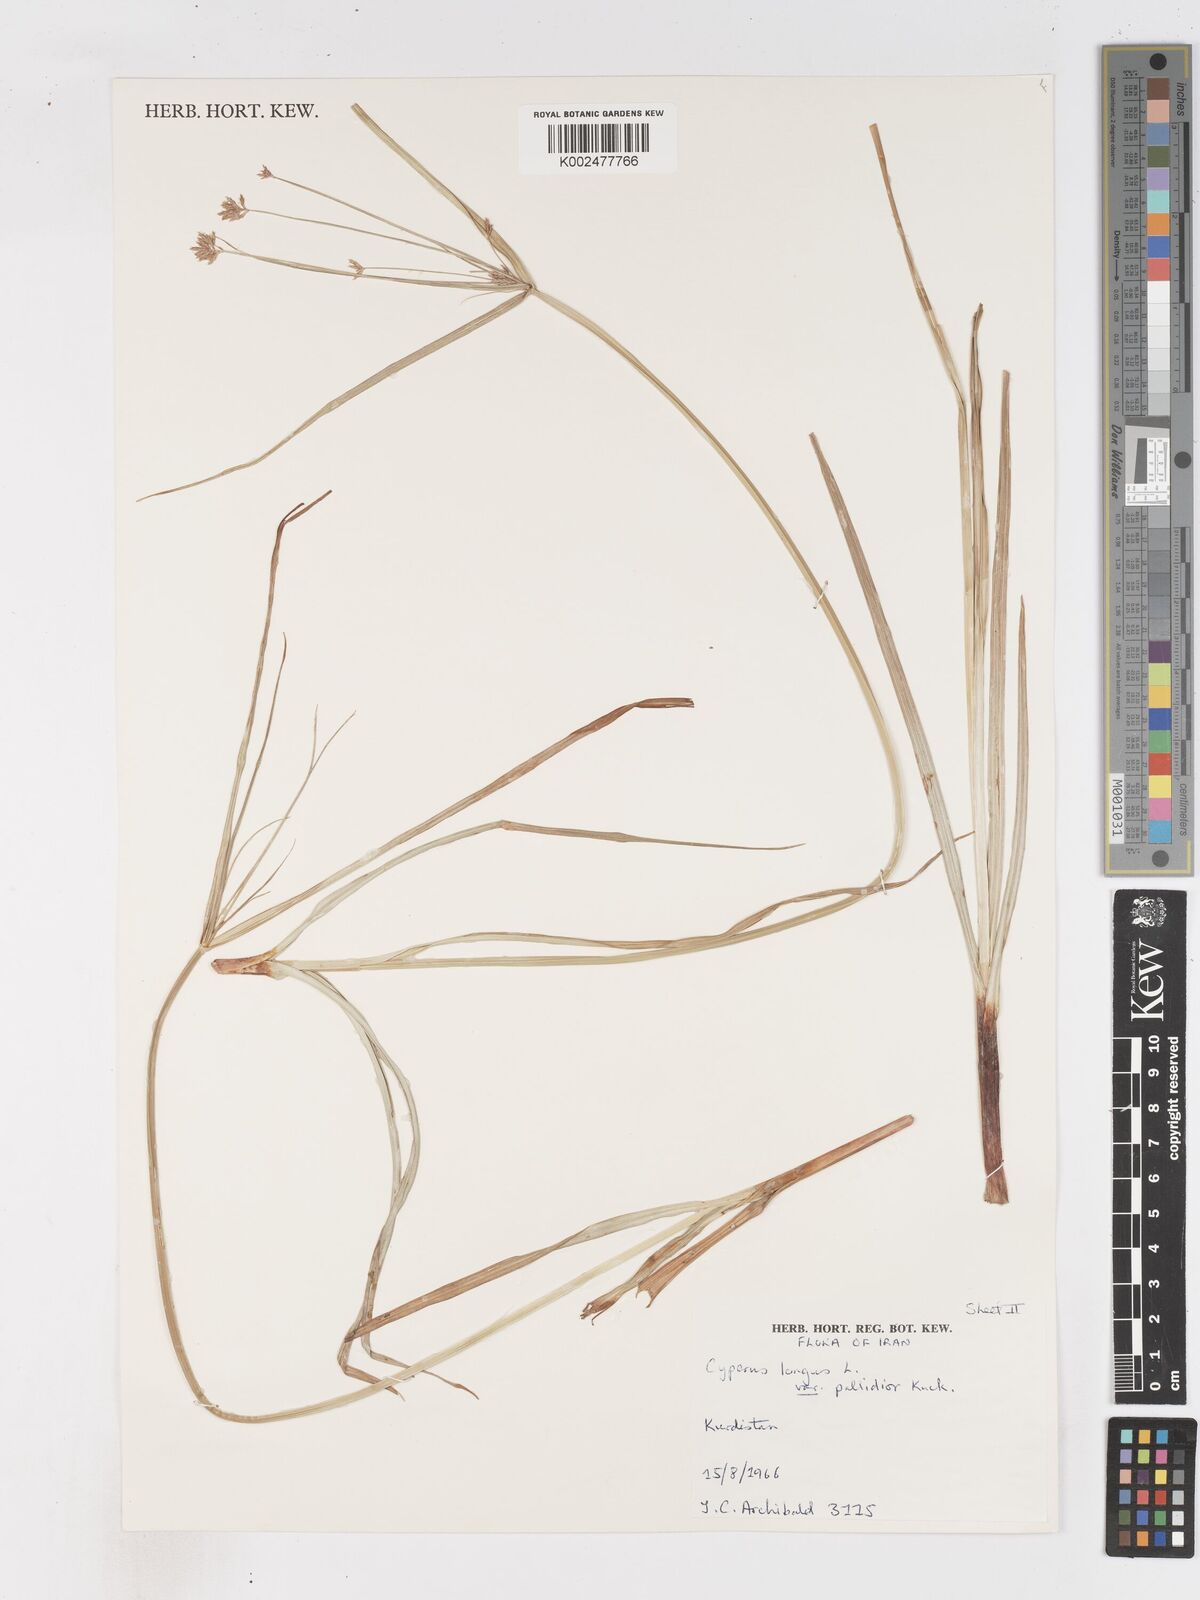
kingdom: Plantae
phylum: Tracheophyta
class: Liliopsida
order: Poales
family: Cyperaceae
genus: Cyperus
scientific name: Cyperus longus
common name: Galingale
